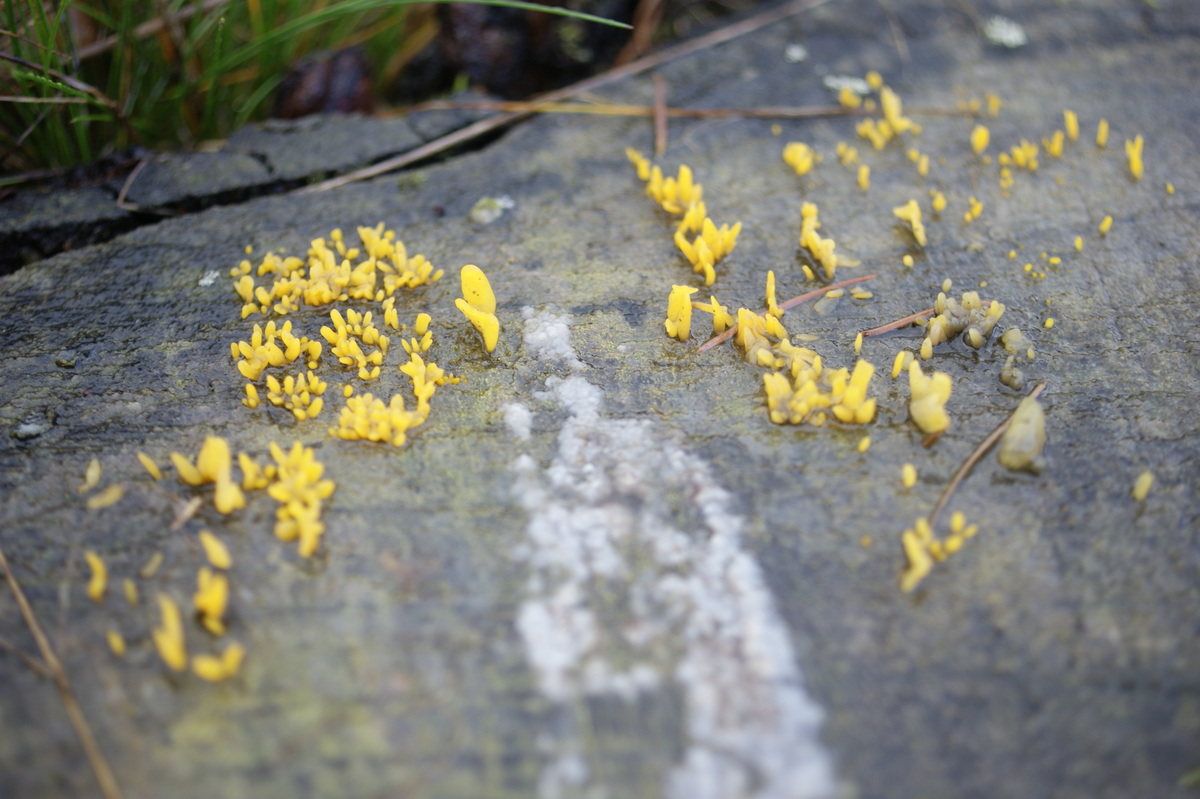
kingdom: Fungi
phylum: Basidiomycota
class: Dacrymycetes
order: Dacrymycetales
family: Dacrymycetaceae
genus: Calocera
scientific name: Calocera furcata
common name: fyrre-guldgaffel
